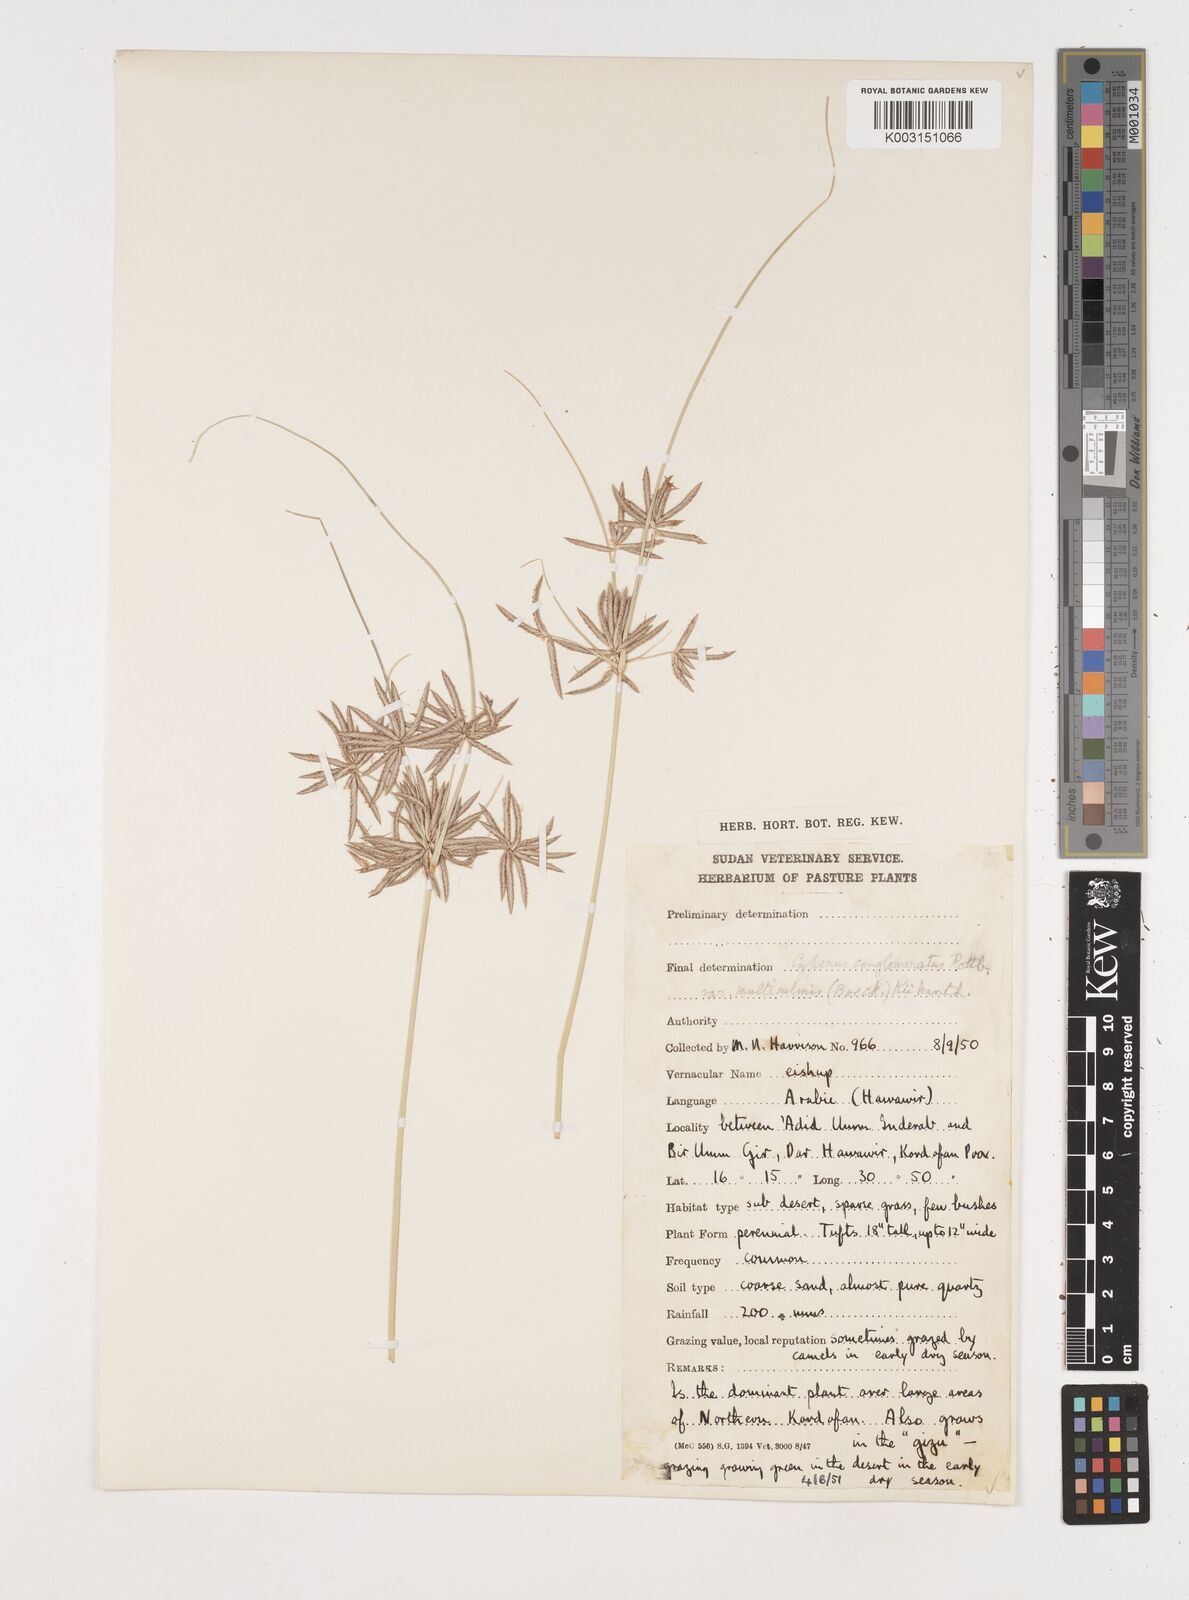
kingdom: Plantae
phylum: Tracheophyta
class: Liliopsida
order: Poales
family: Cyperaceae
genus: Cyperus
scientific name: Cyperus jeminicus
